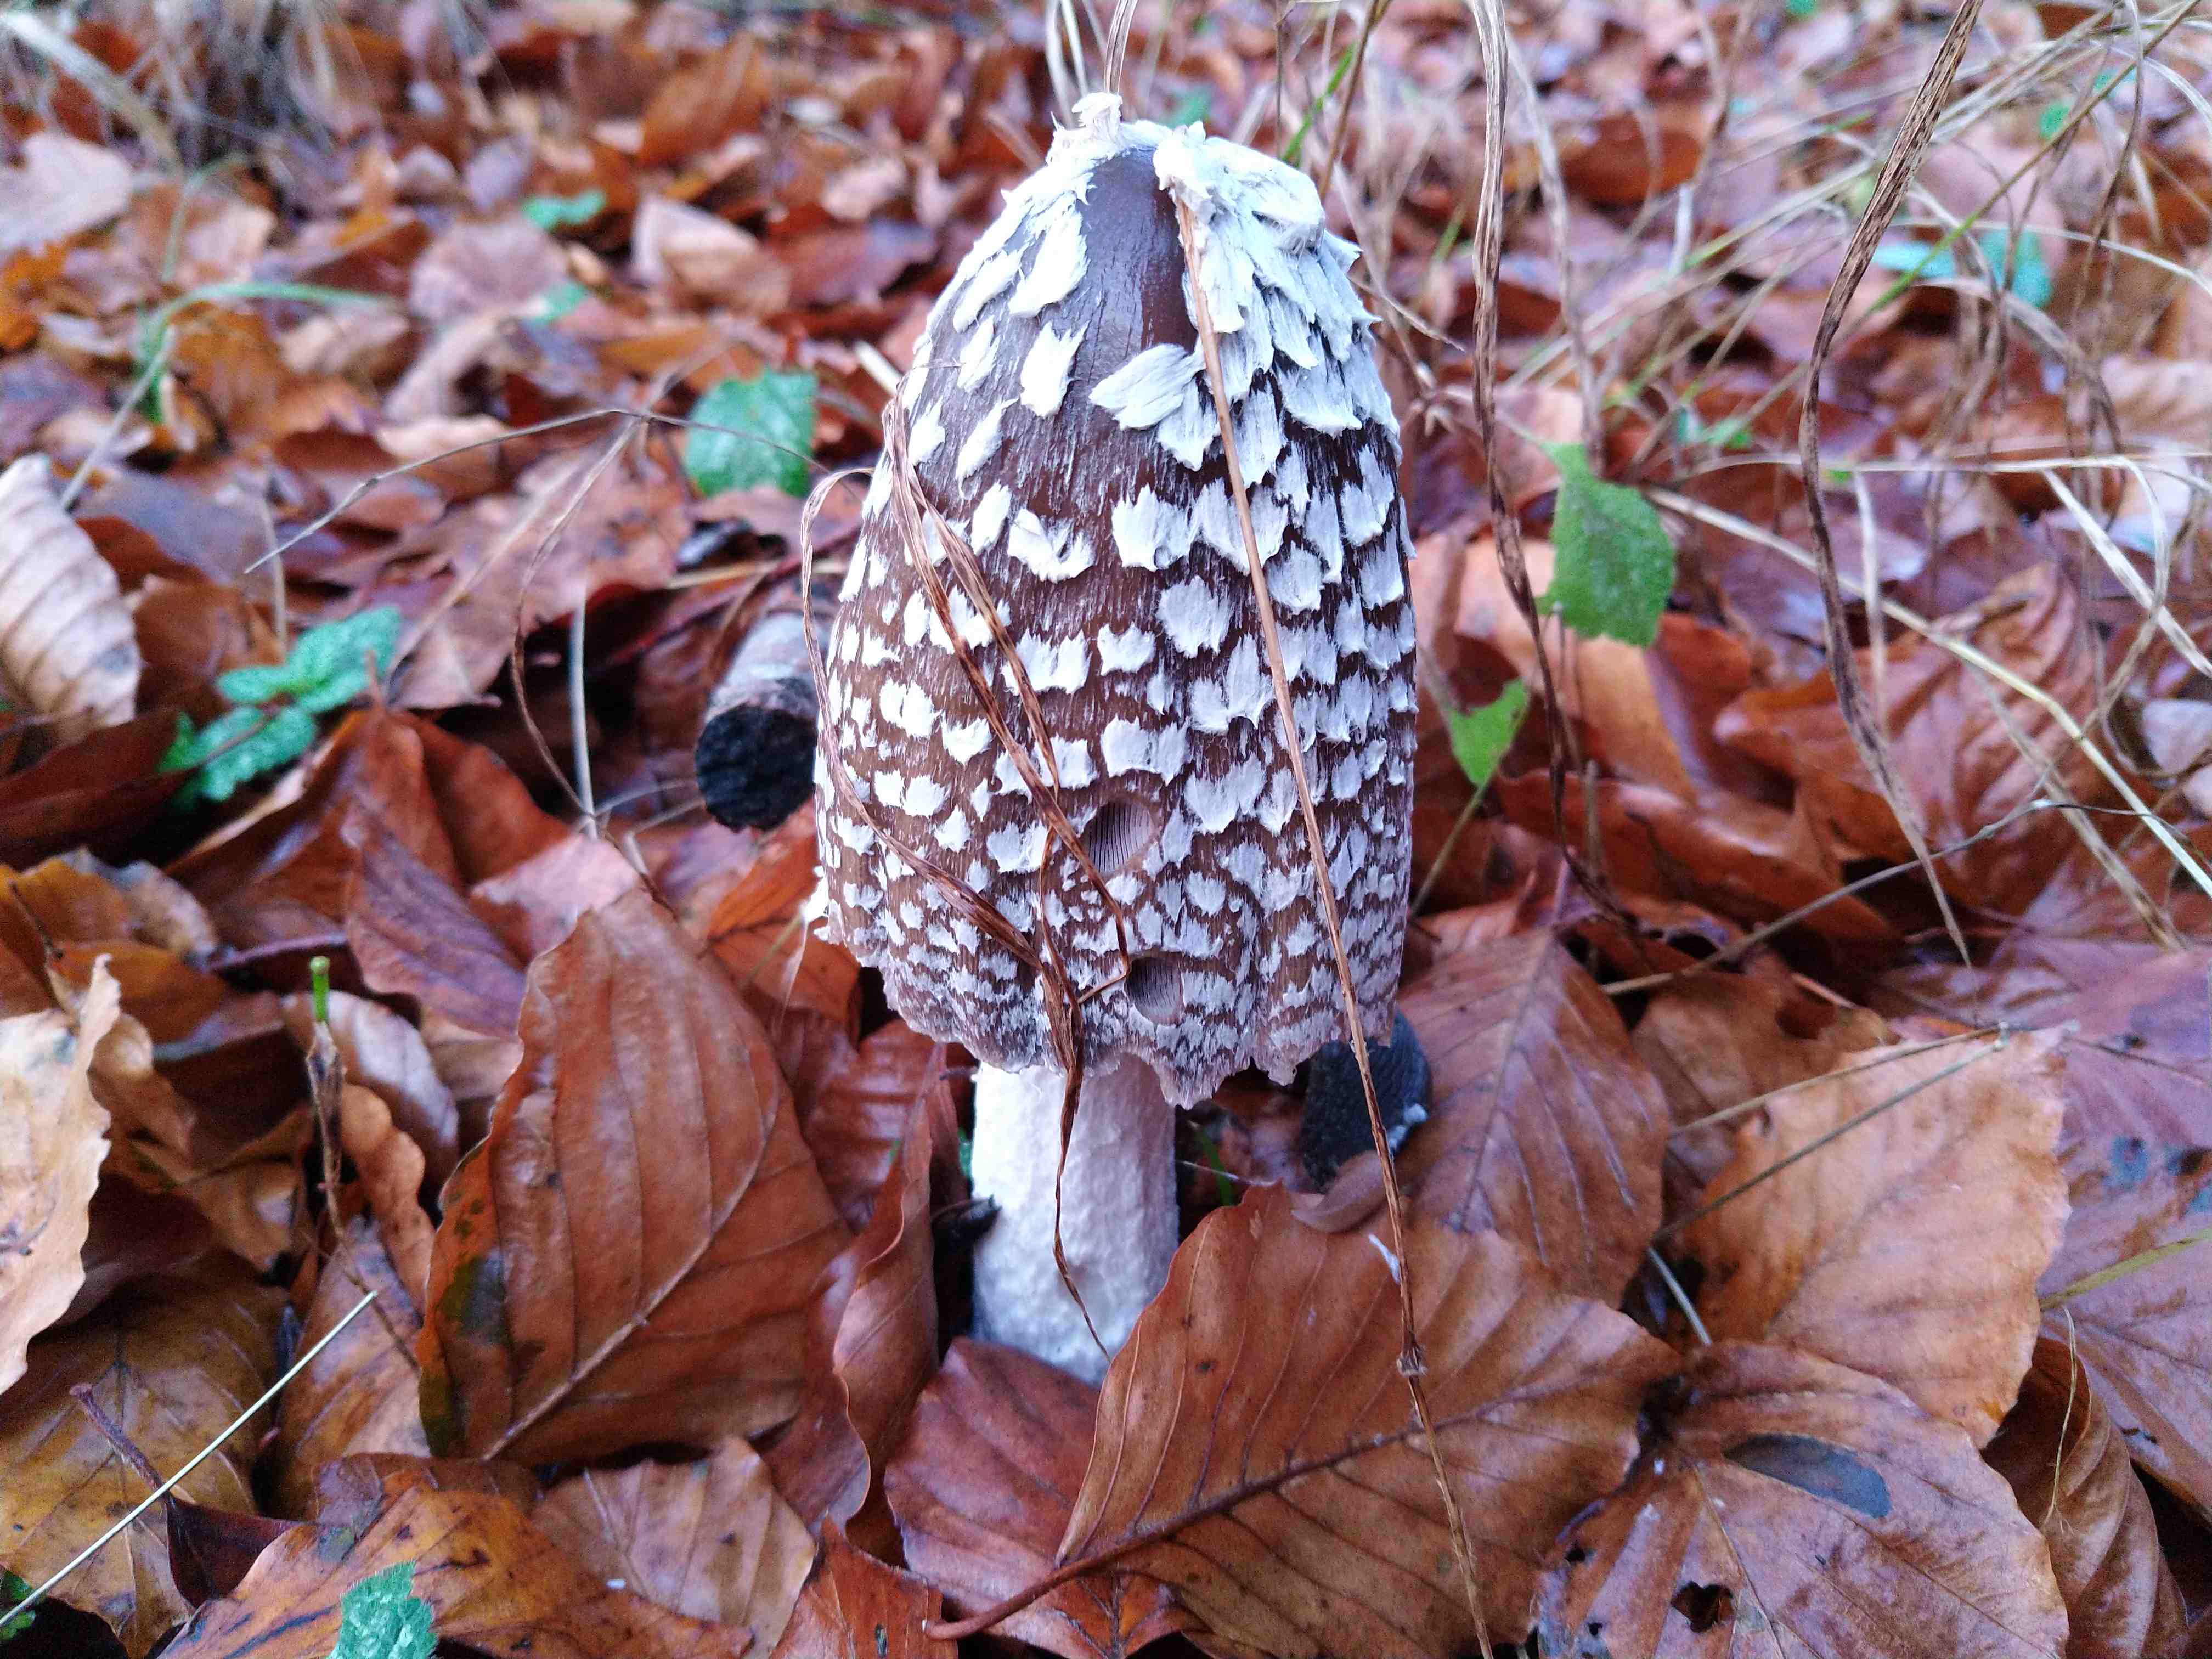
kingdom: Fungi
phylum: Basidiomycota
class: Agaricomycetes
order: Agaricales
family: Psathyrellaceae
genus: Coprinopsis
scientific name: Coprinopsis picacea
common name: skade-blækhat
